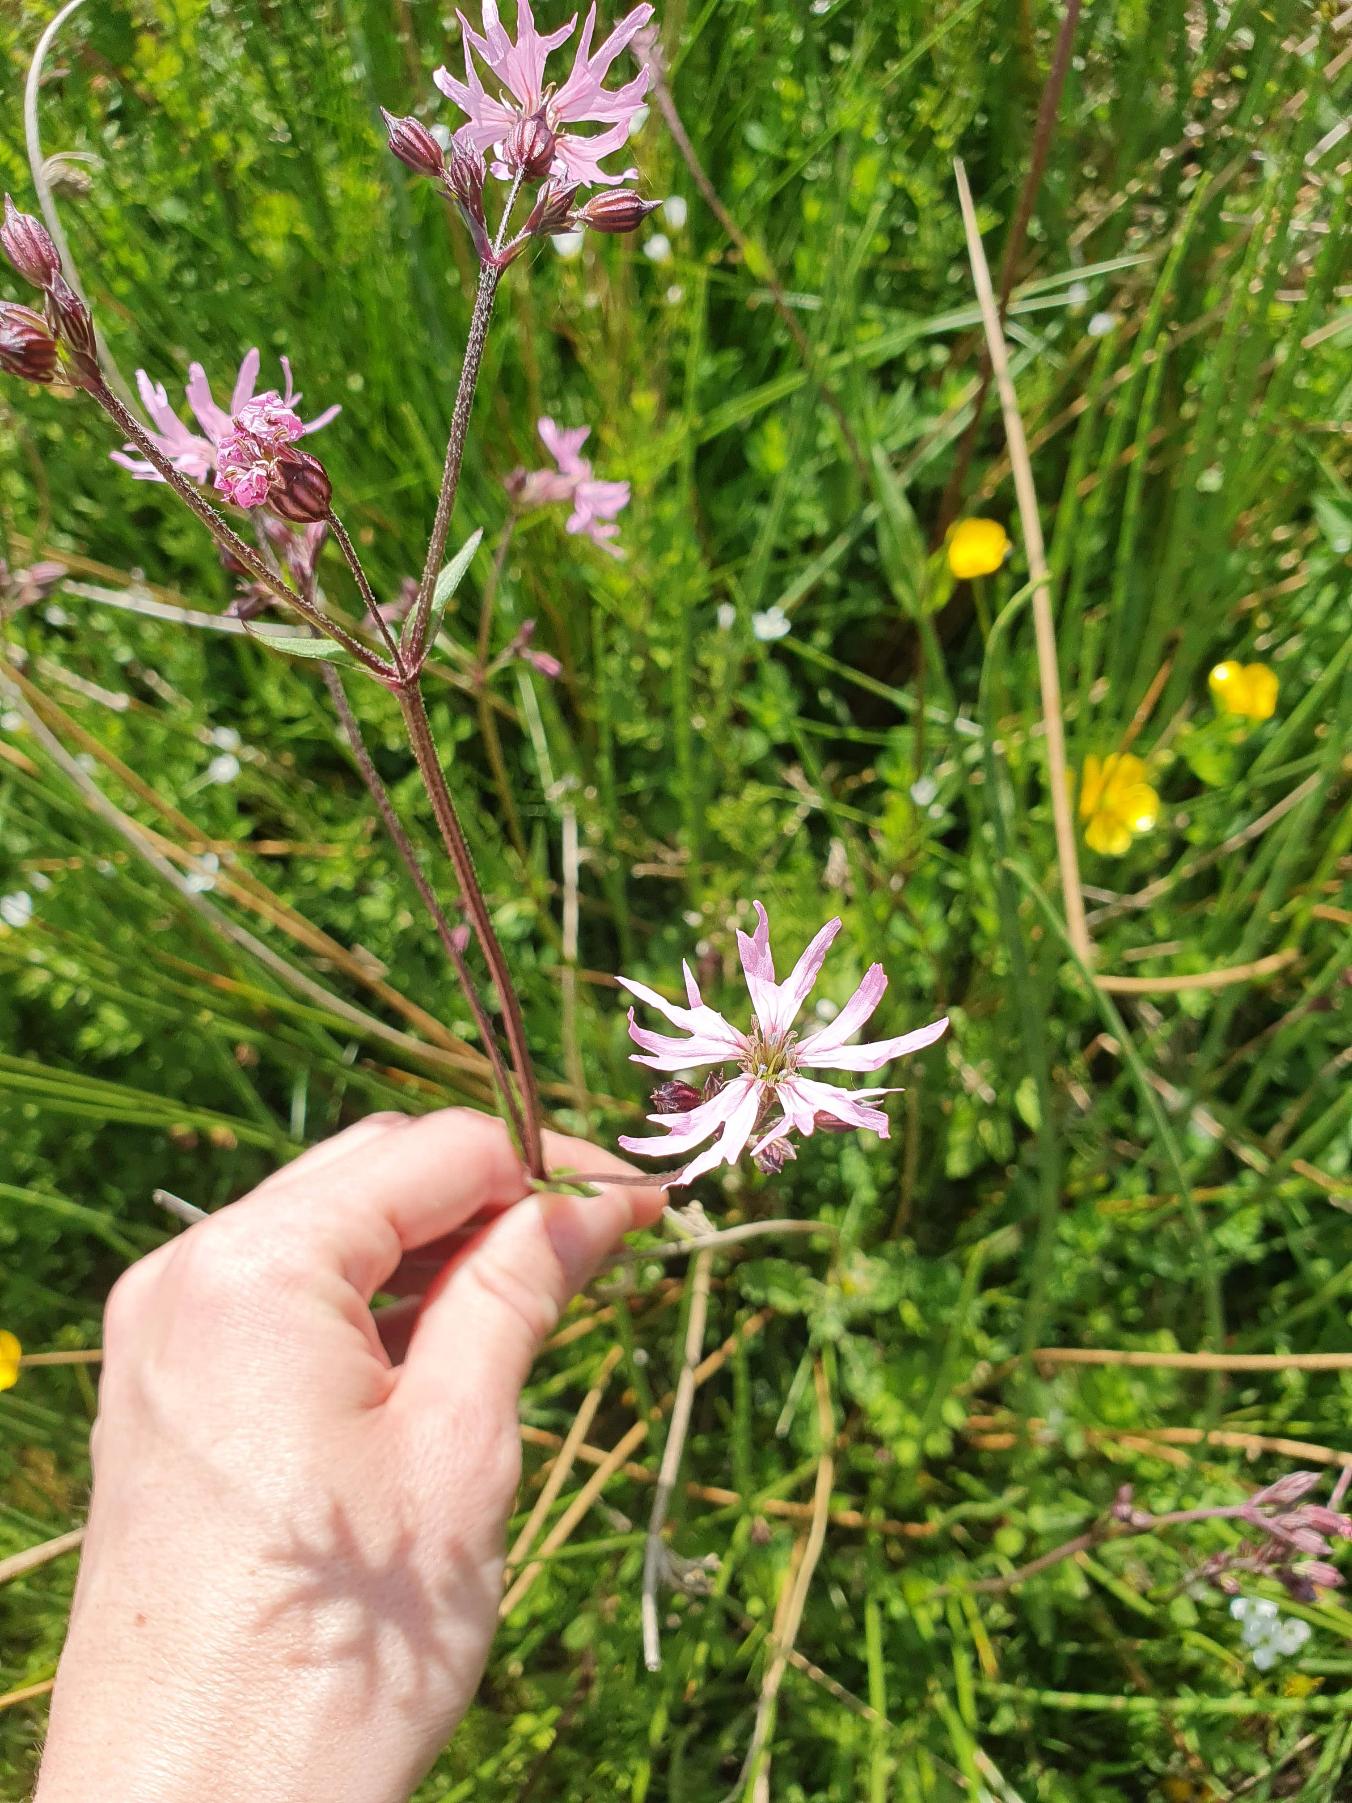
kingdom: Plantae
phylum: Tracheophyta
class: Magnoliopsida
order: Caryophyllales
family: Caryophyllaceae
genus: Silene
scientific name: Silene flos-cuculi
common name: Trævlekrone
